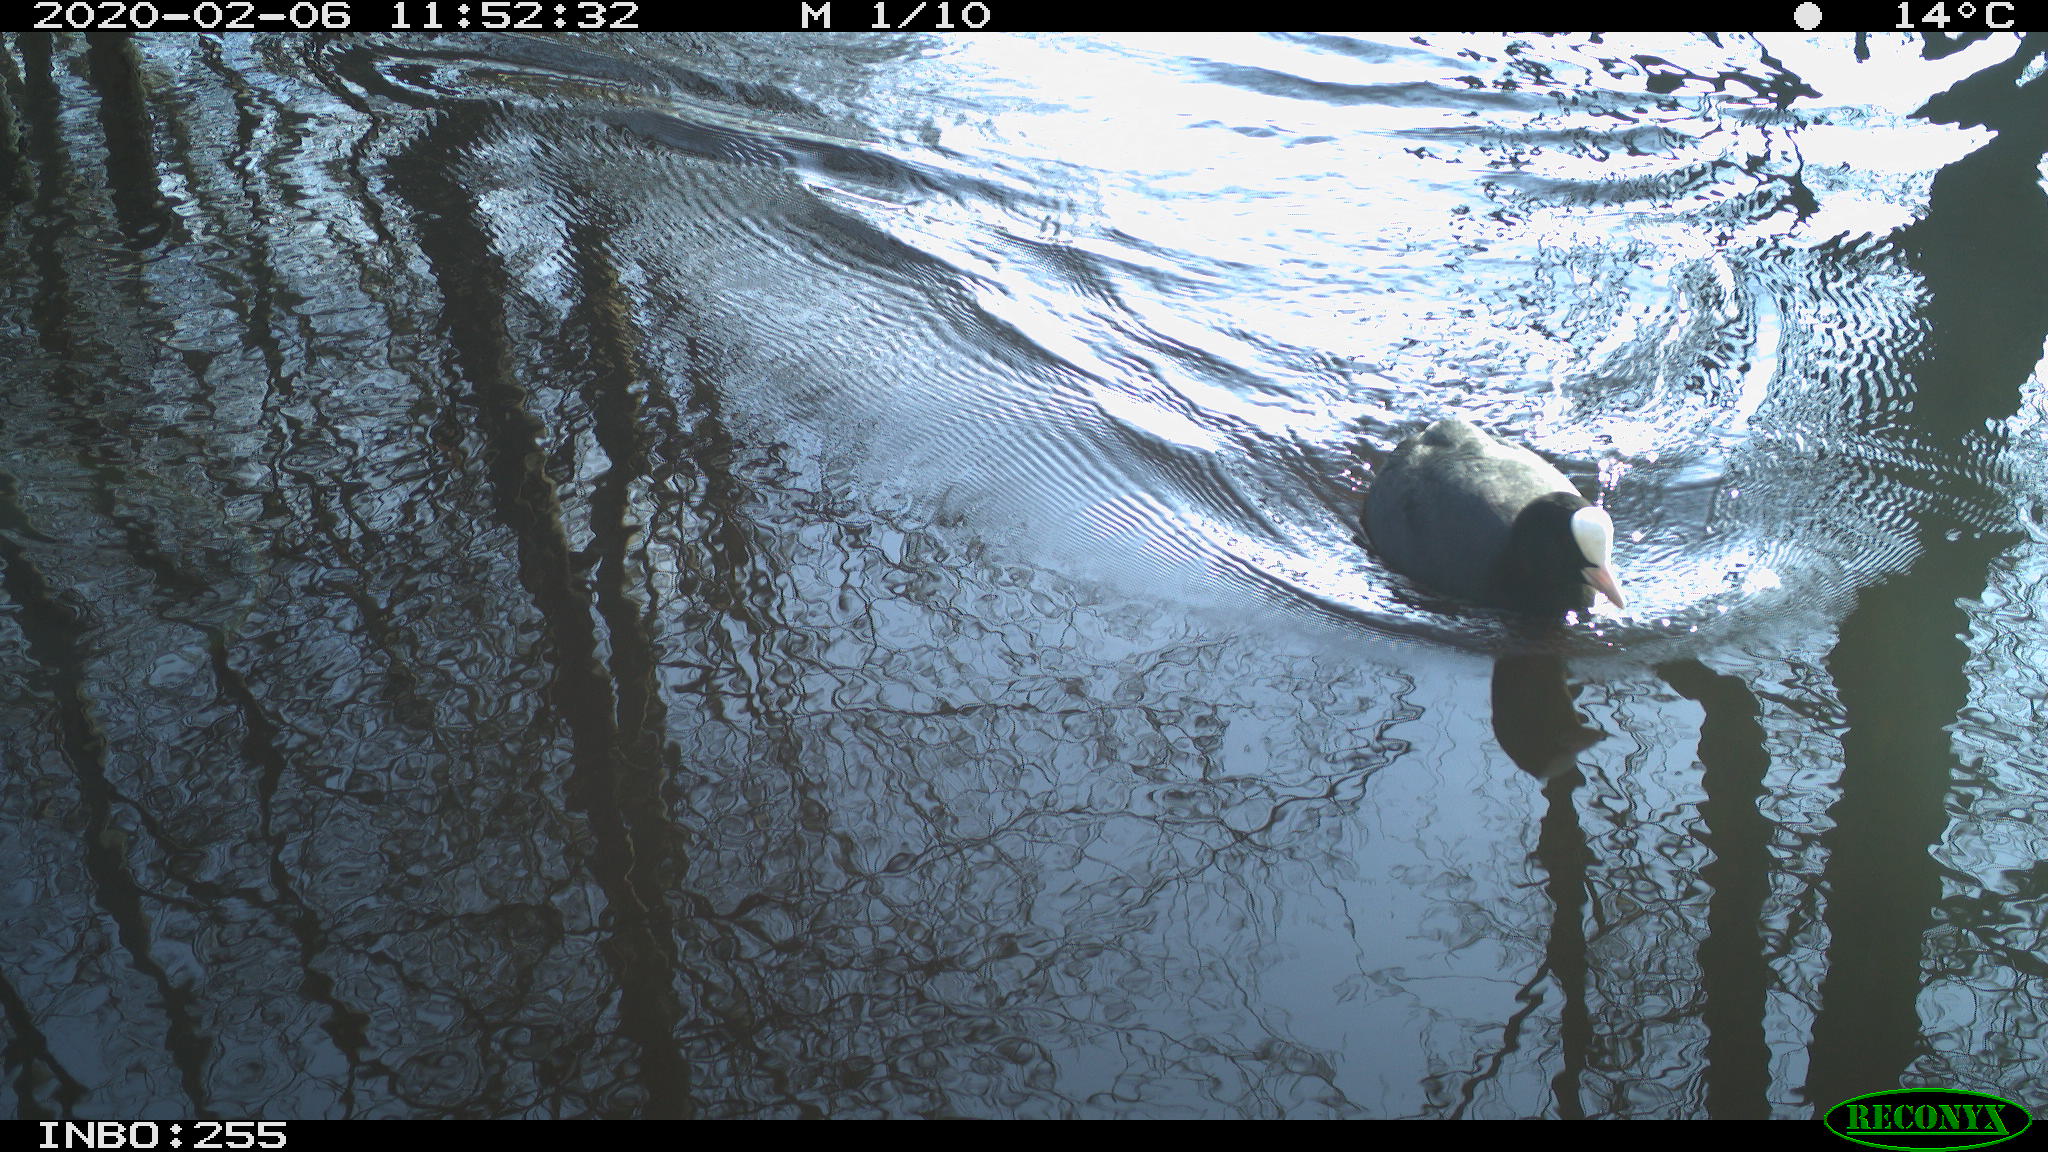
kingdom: Animalia
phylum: Chordata
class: Aves
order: Gruiformes
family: Rallidae
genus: Fulica
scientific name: Fulica atra
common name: Eurasian coot
